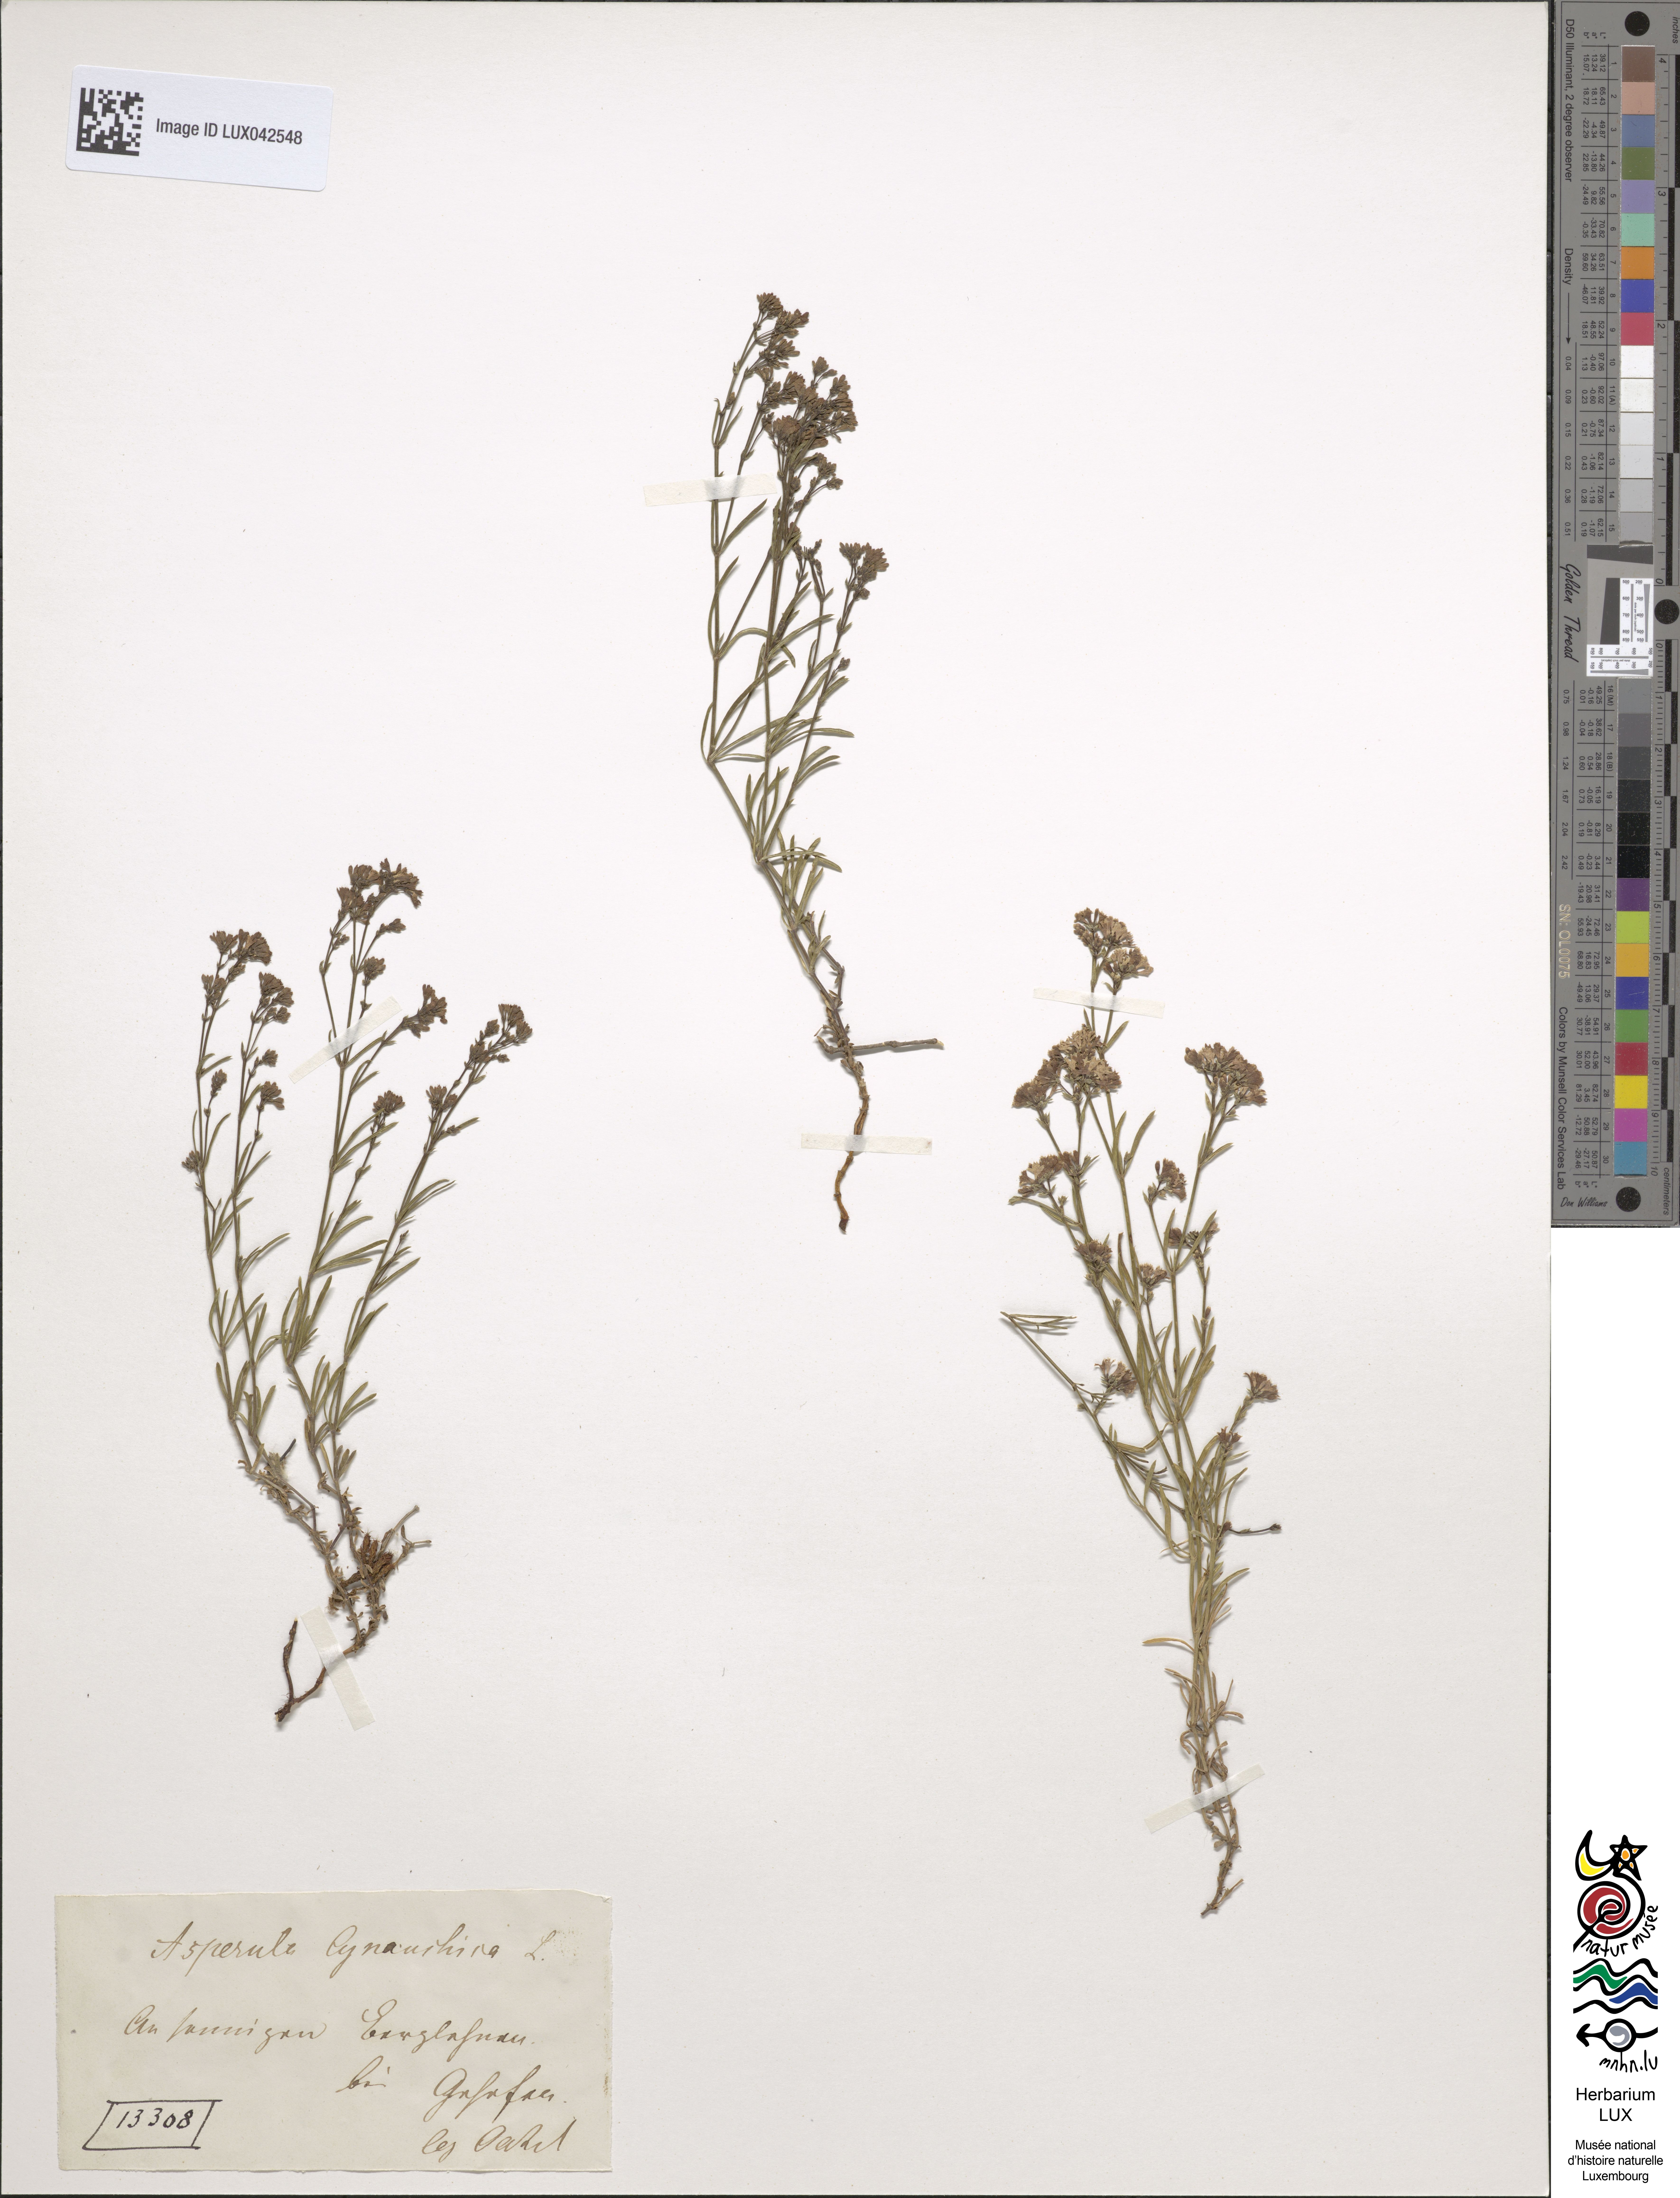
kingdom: Plantae
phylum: Tracheophyta
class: Magnoliopsida
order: Gentianales
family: Rubiaceae
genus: Cynanchica
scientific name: Cynanchica pyrenaica
